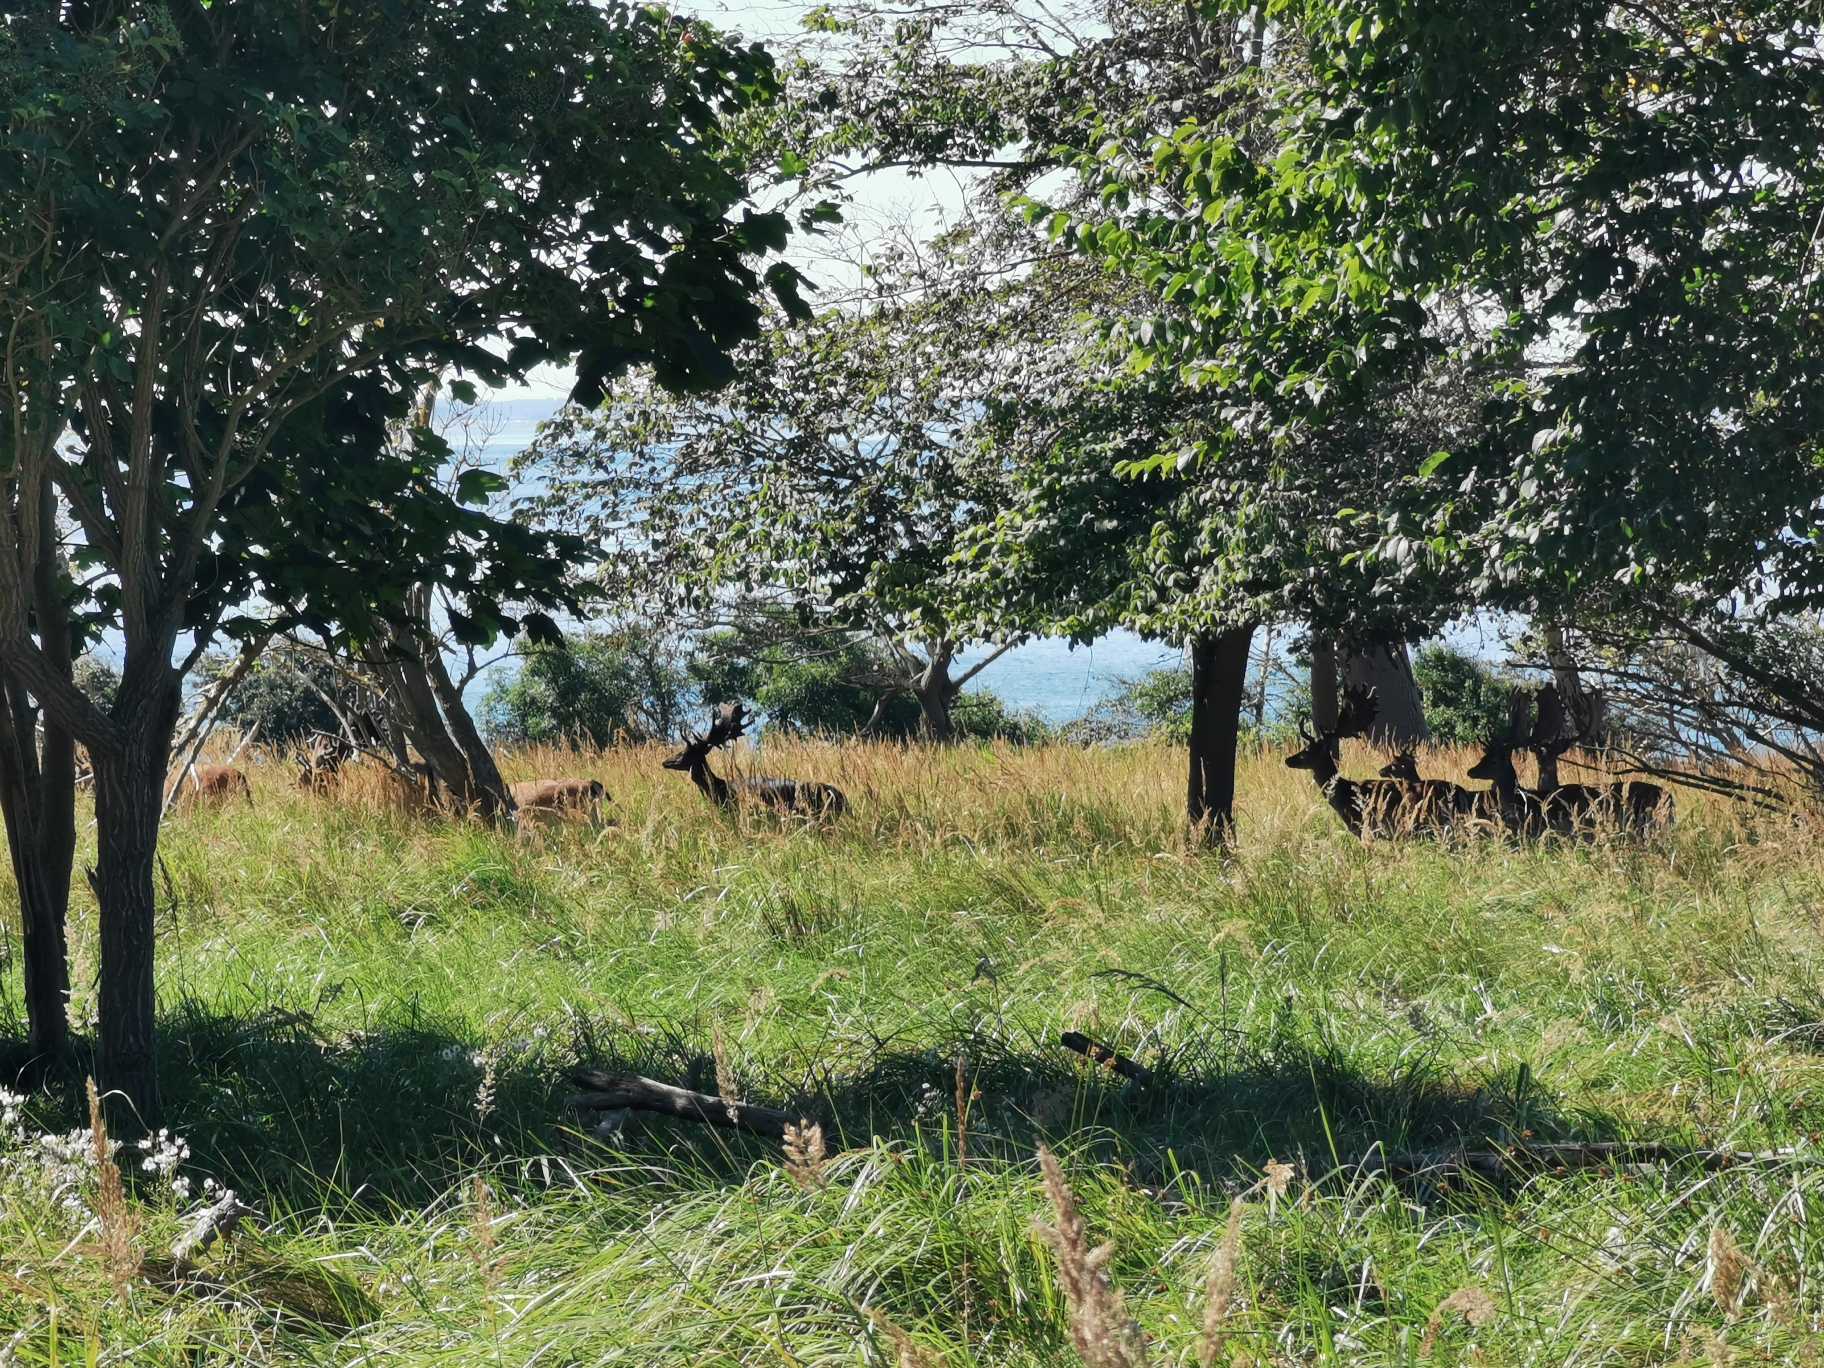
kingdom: Animalia
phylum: Chordata
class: Mammalia
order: Artiodactyla
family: Cervidae
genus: Dama
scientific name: Dama dama
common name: Dådyr
